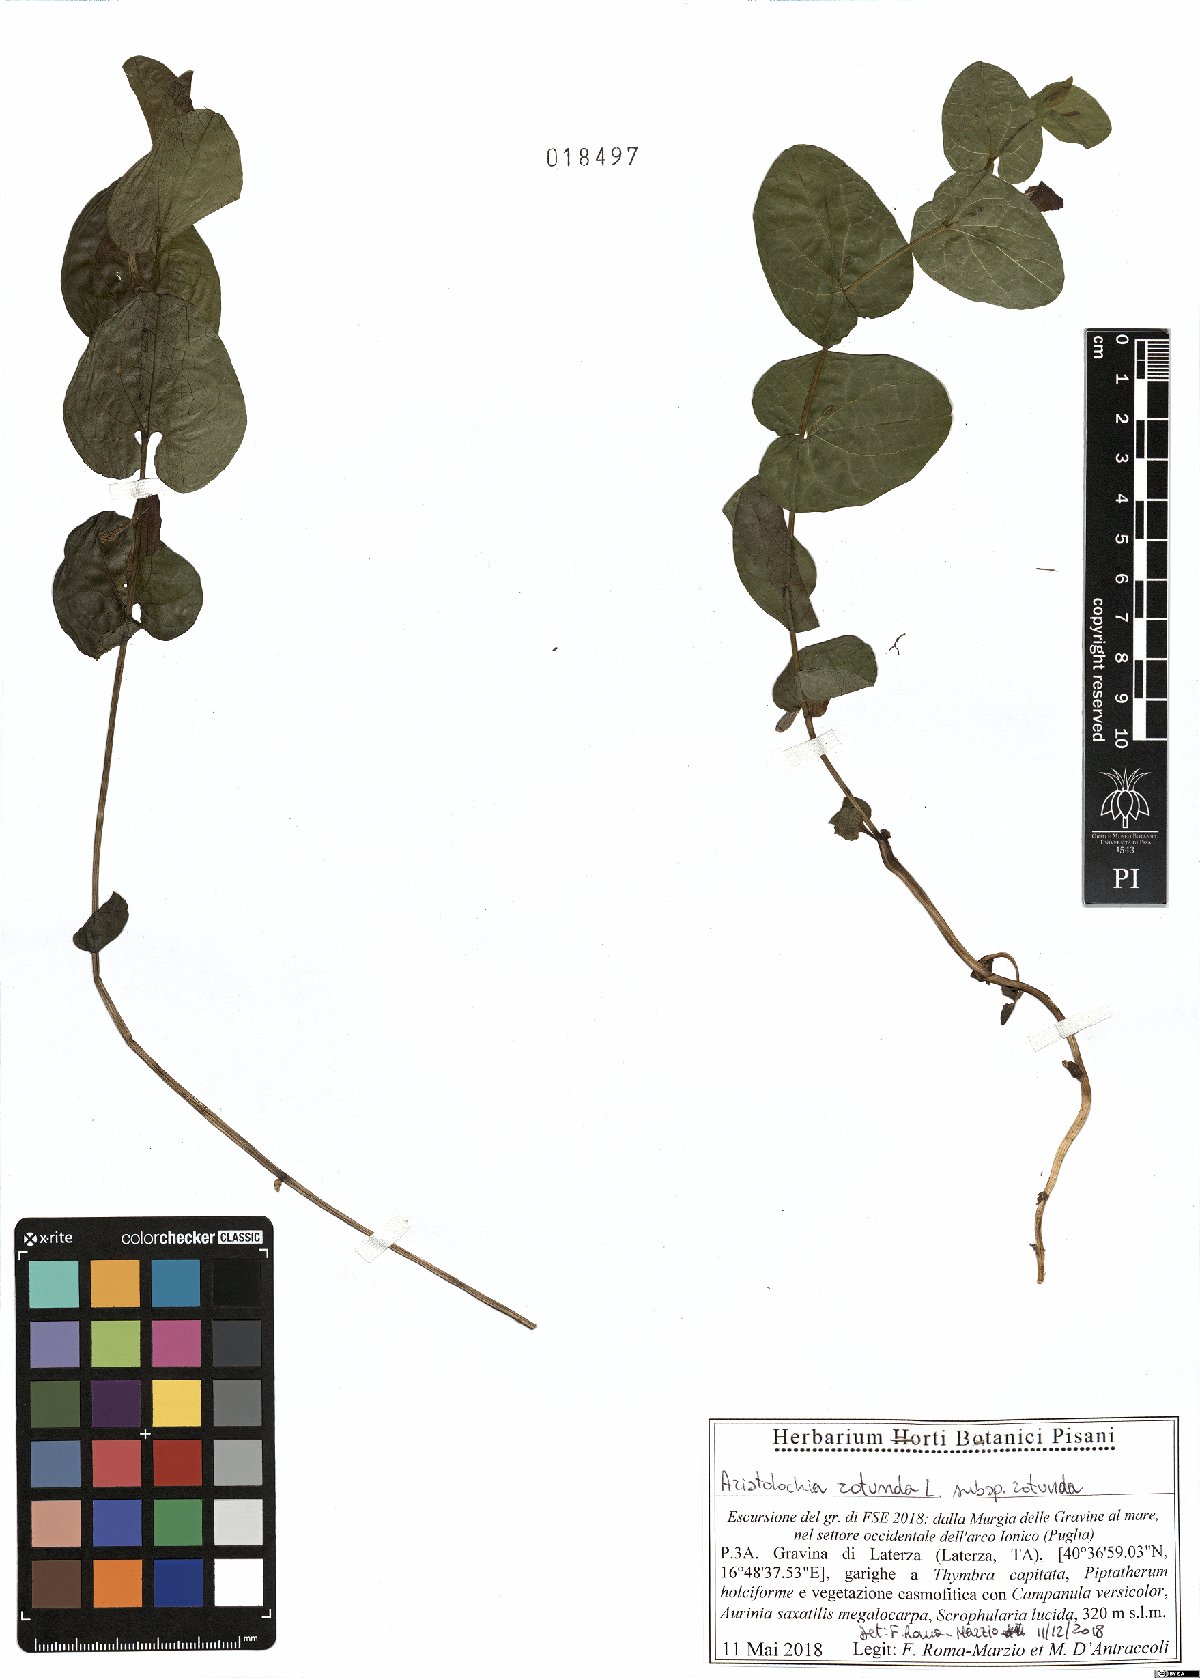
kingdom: Plantae
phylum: Tracheophyta
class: Magnoliopsida
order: Piperales
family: Aristolochiaceae
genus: Aristolochia
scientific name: Aristolochia rotunda
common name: Smearwort
